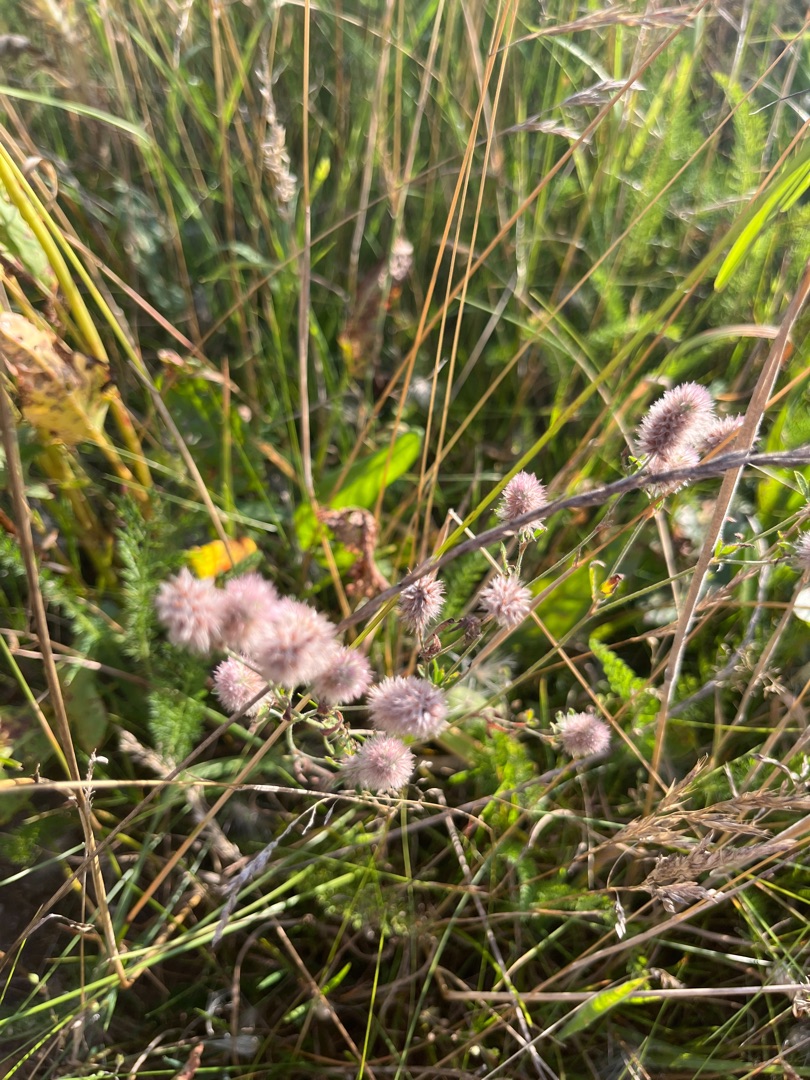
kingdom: Plantae
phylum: Tracheophyta
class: Magnoliopsida
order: Fabales
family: Fabaceae
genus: Trifolium
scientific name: Trifolium arvense
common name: Hare-kløver
